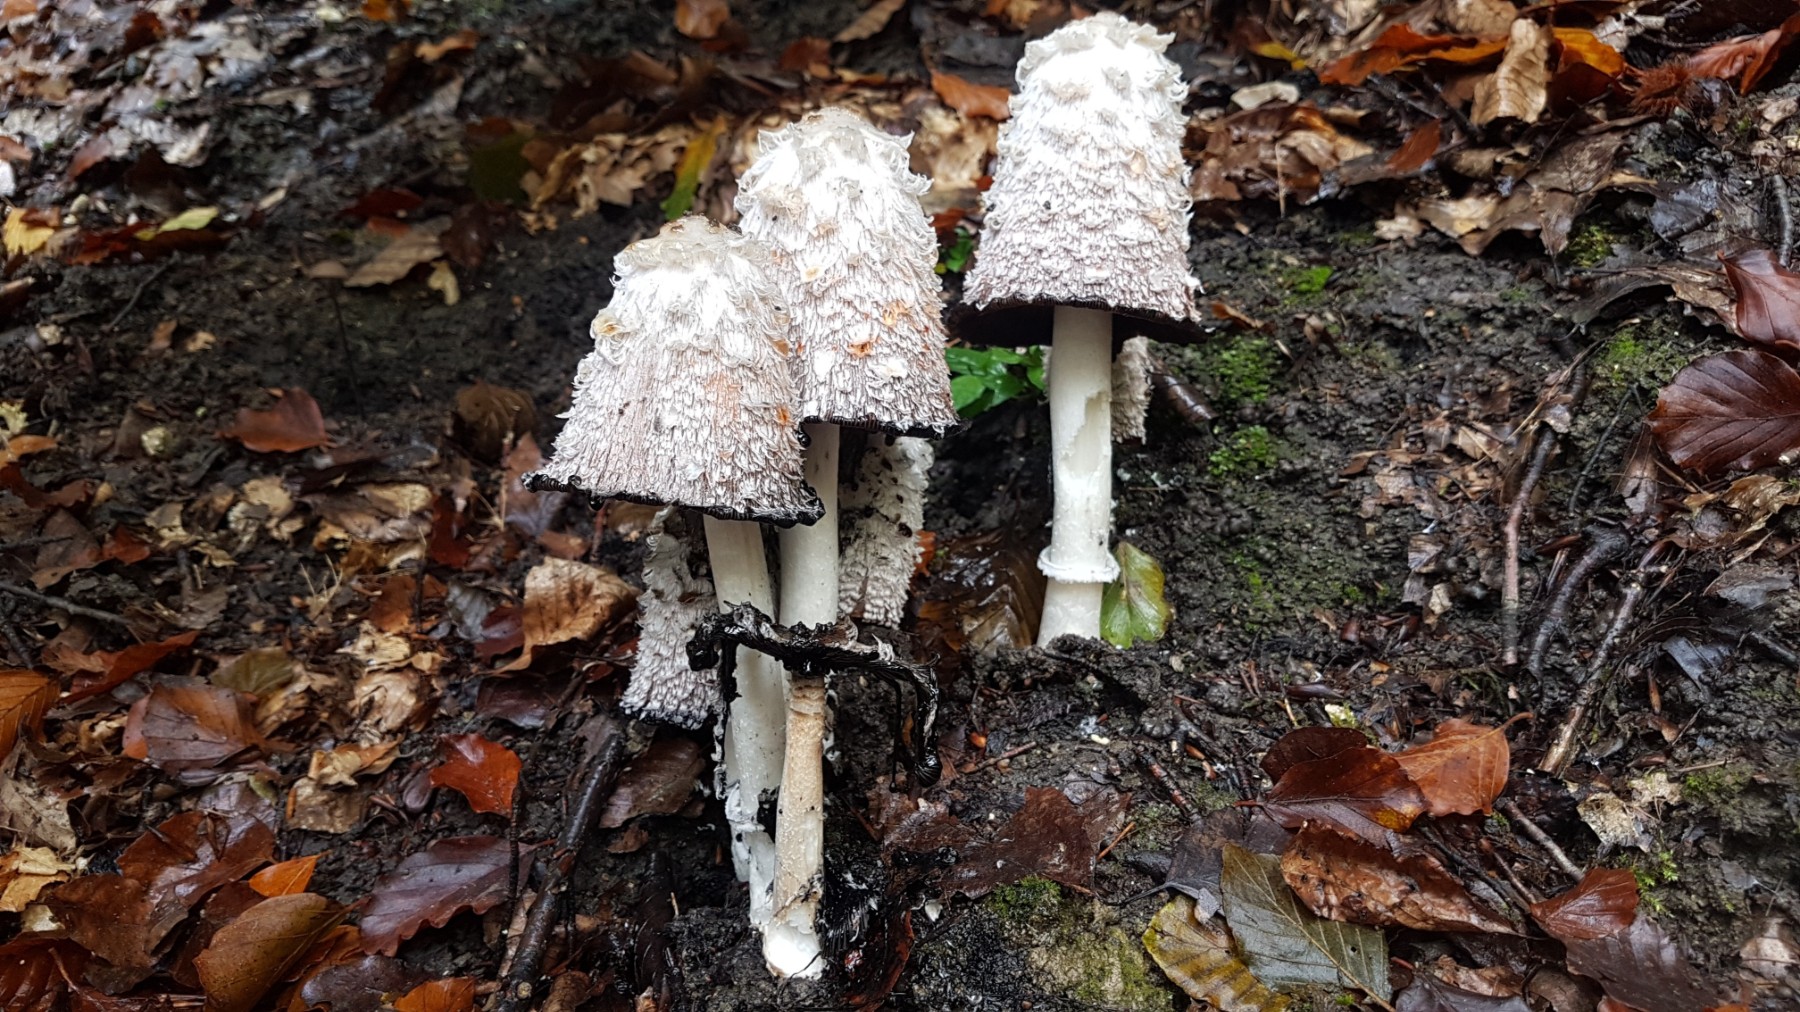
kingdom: Fungi
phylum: Basidiomycota
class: Agaricomycetes
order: Agaricales
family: Agaricaceae
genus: Coprinus
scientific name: Coprinus comatus
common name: stor parykhat
